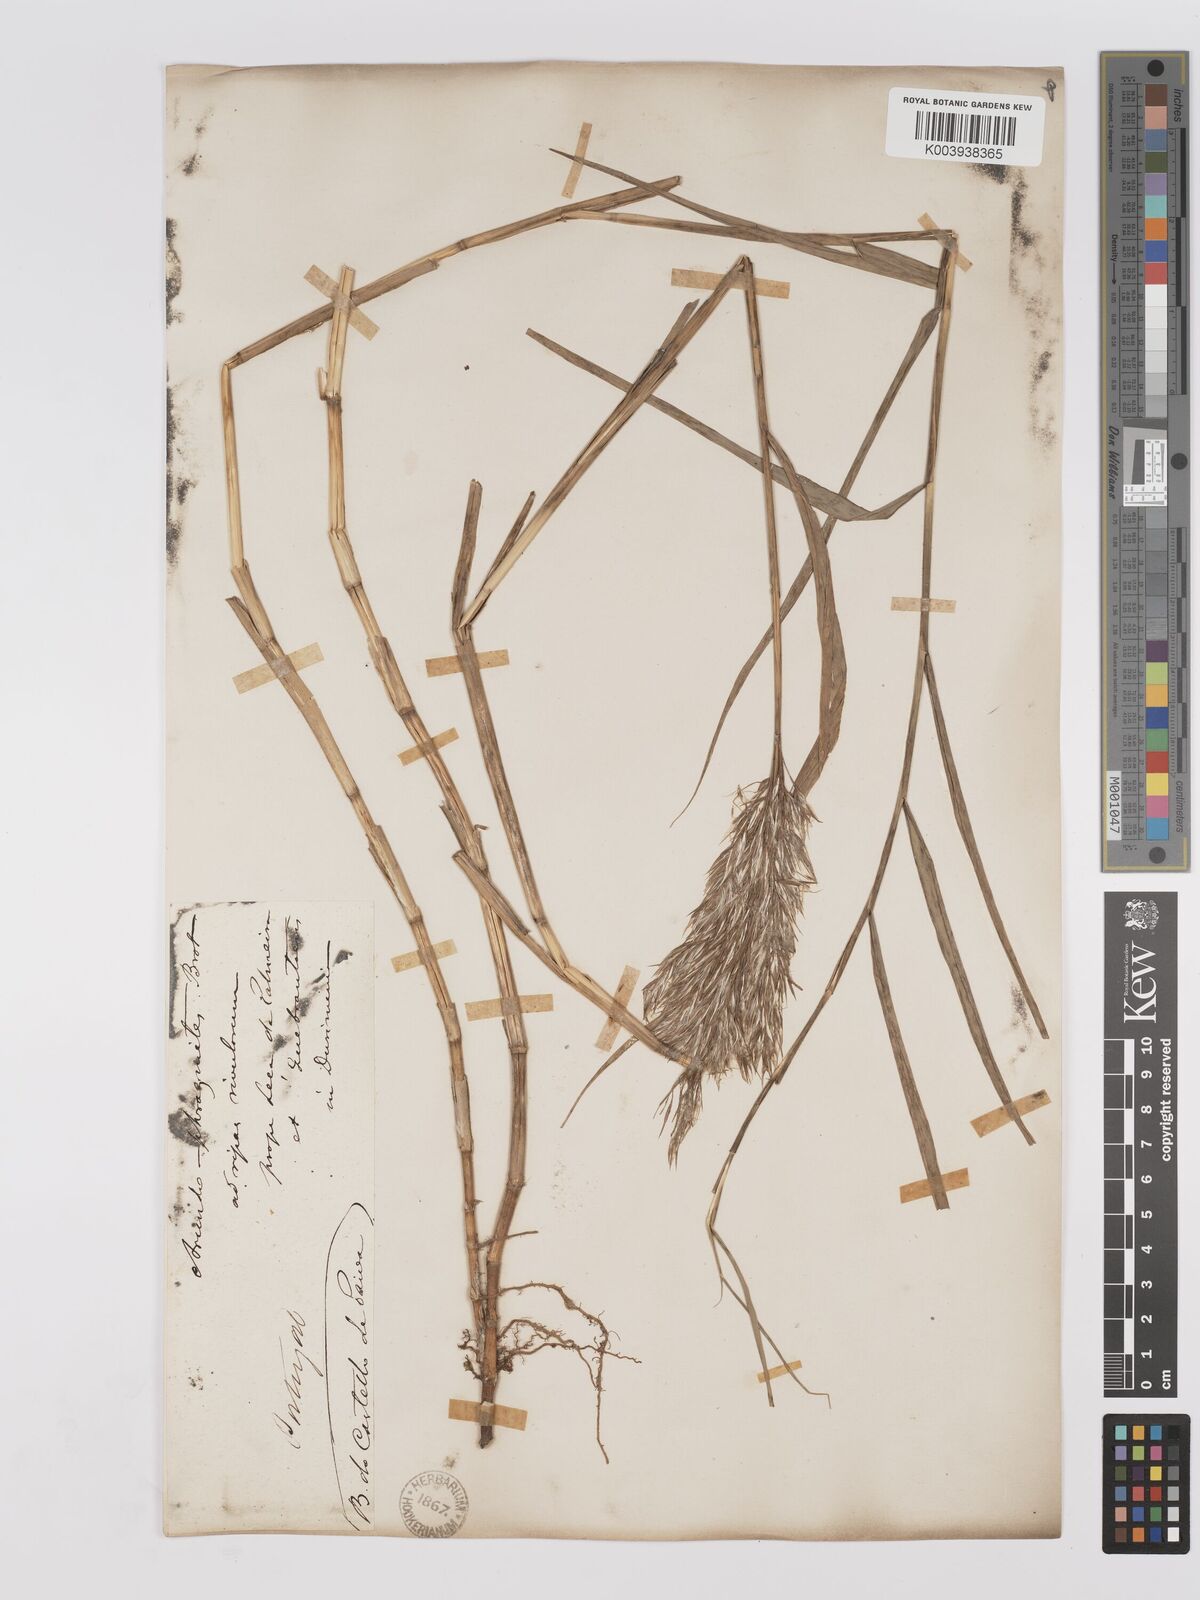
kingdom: Plantae
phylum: Tracheophyta
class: Liliopsida
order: Poales
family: Poaceae
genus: Phragmites
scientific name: Phragmites australis
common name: Common reed
